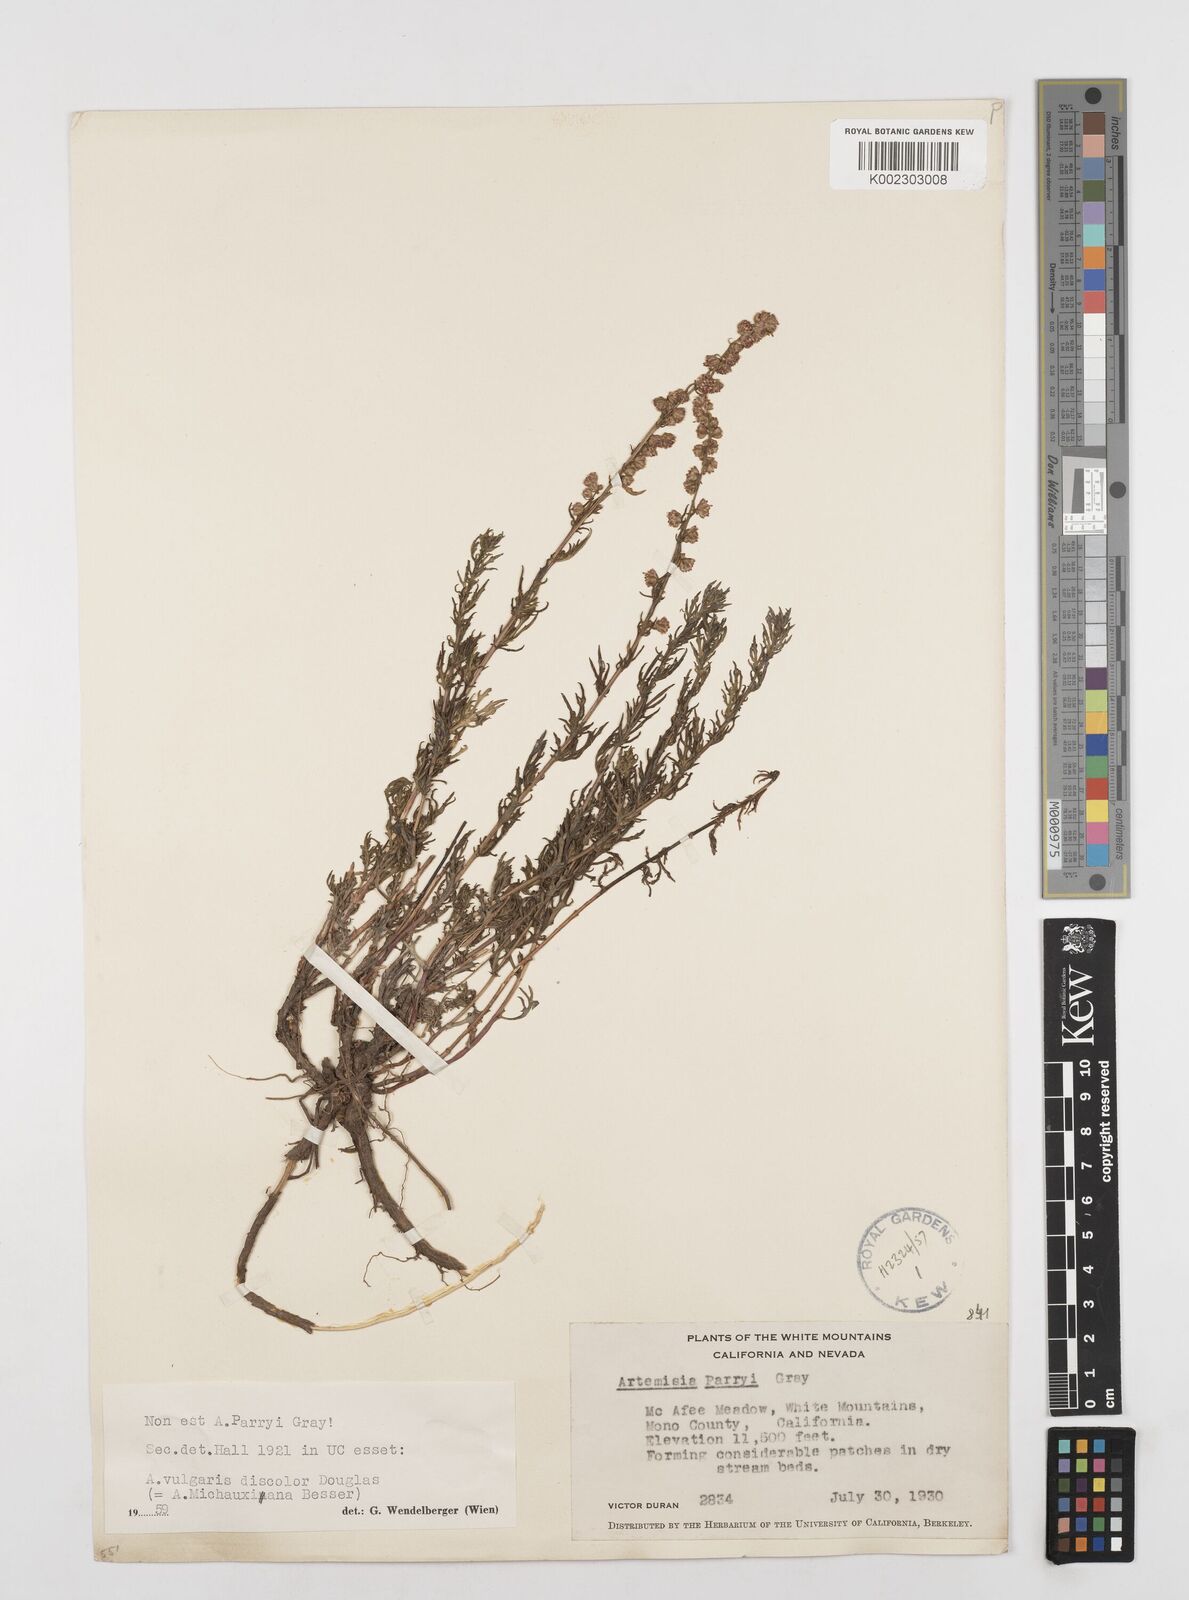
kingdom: Plantae
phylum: Tracheophyta
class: Magnoliopsida
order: Asterales
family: Asteraceae
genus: Artemisia
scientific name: Artemisia michauxiana
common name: Lemon sagewort
